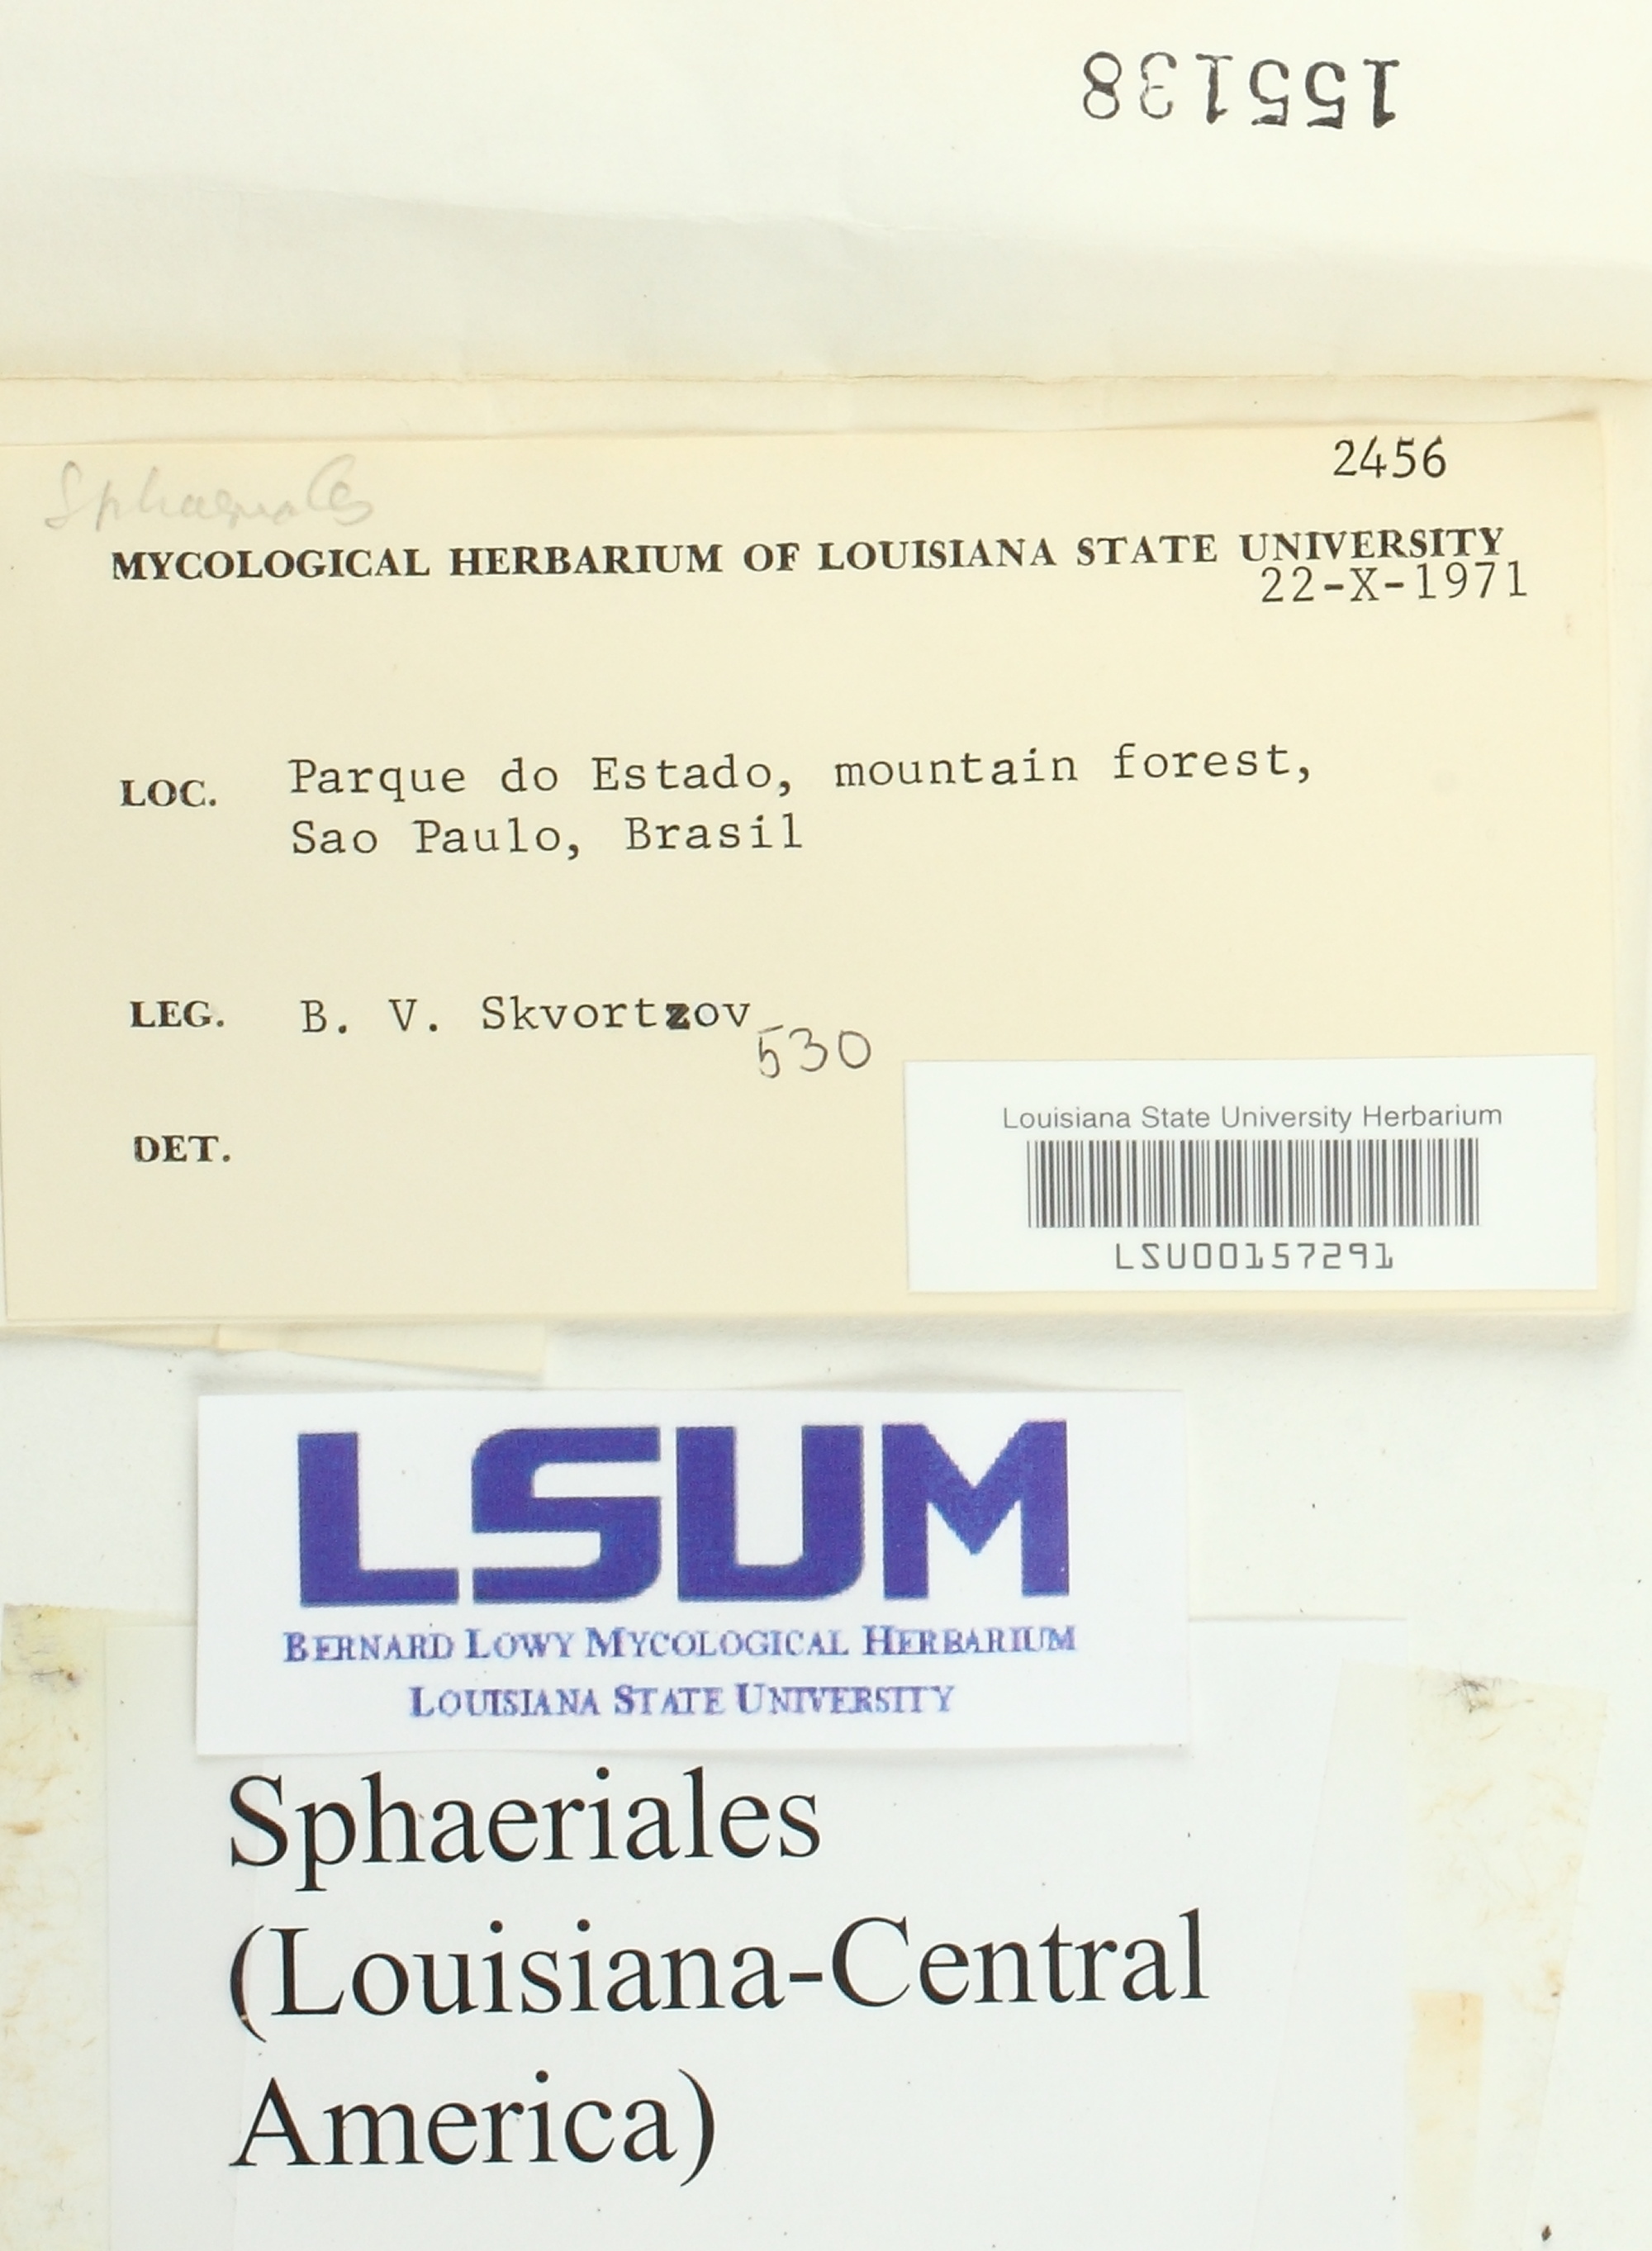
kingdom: Fungi
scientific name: Fungi
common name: Fungi
